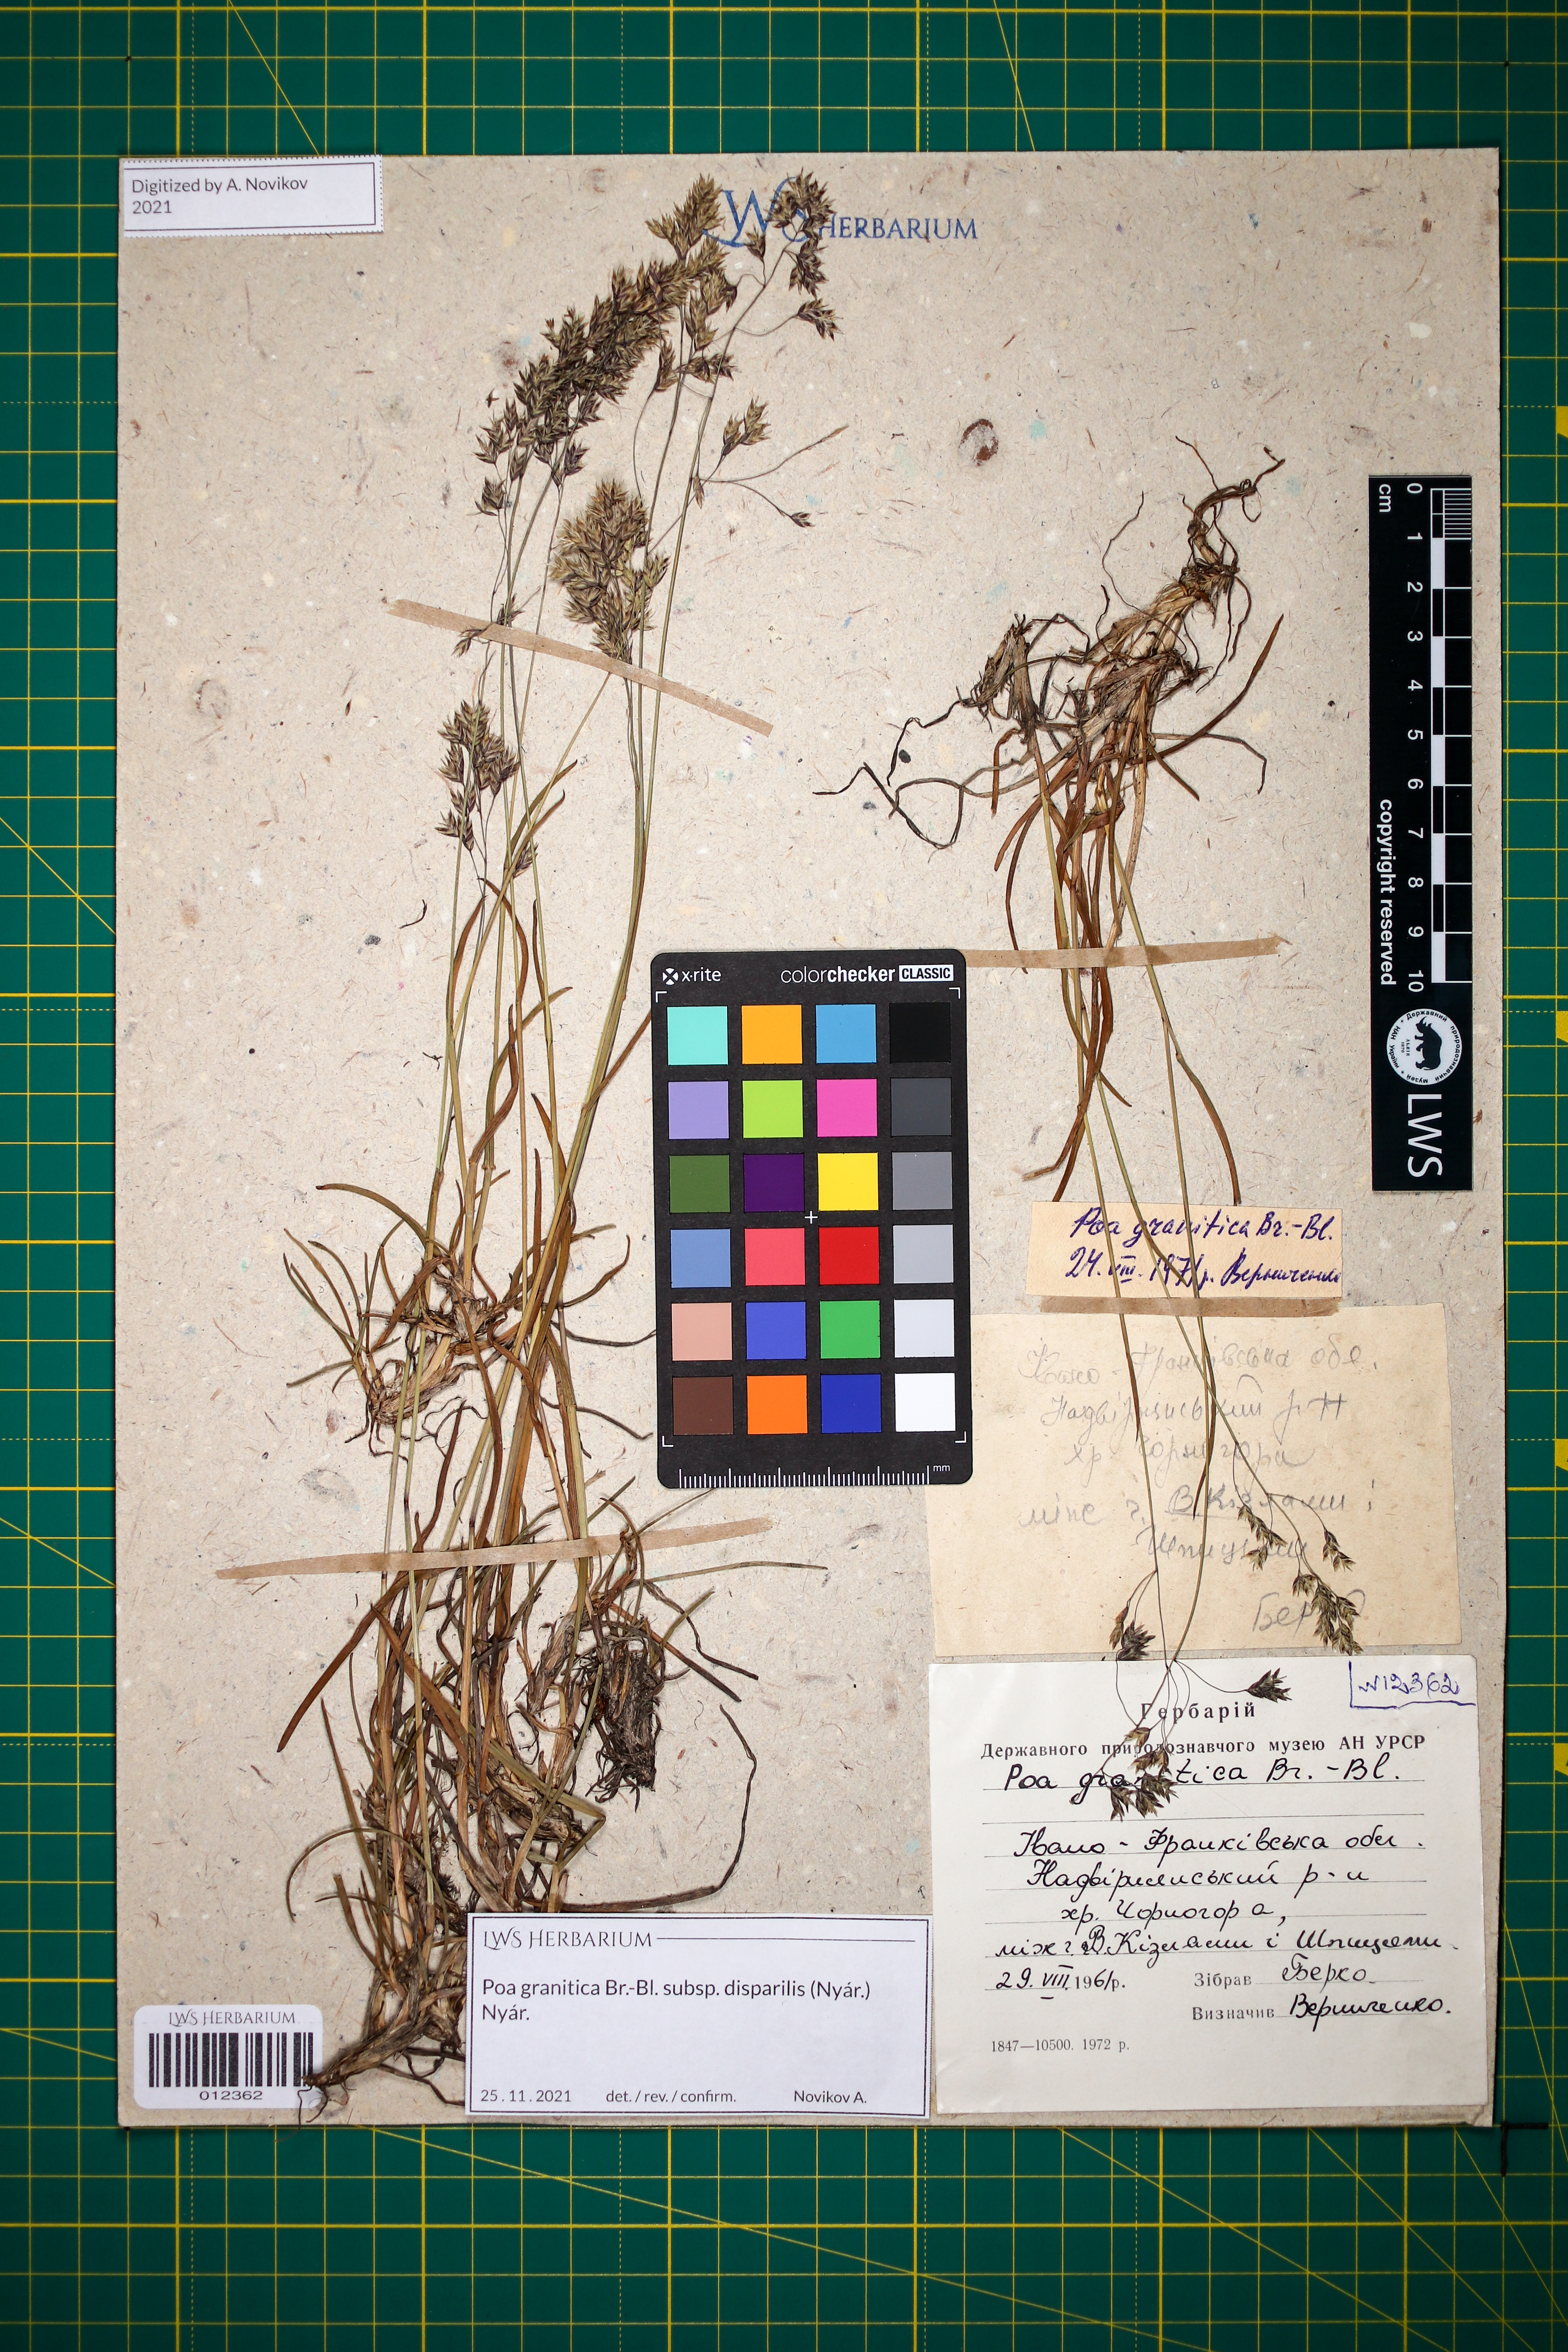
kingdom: Plantae
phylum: Tracheophyta
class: Liliopsida
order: Poales
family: Poaceae
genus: Poa
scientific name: Poa granitica
